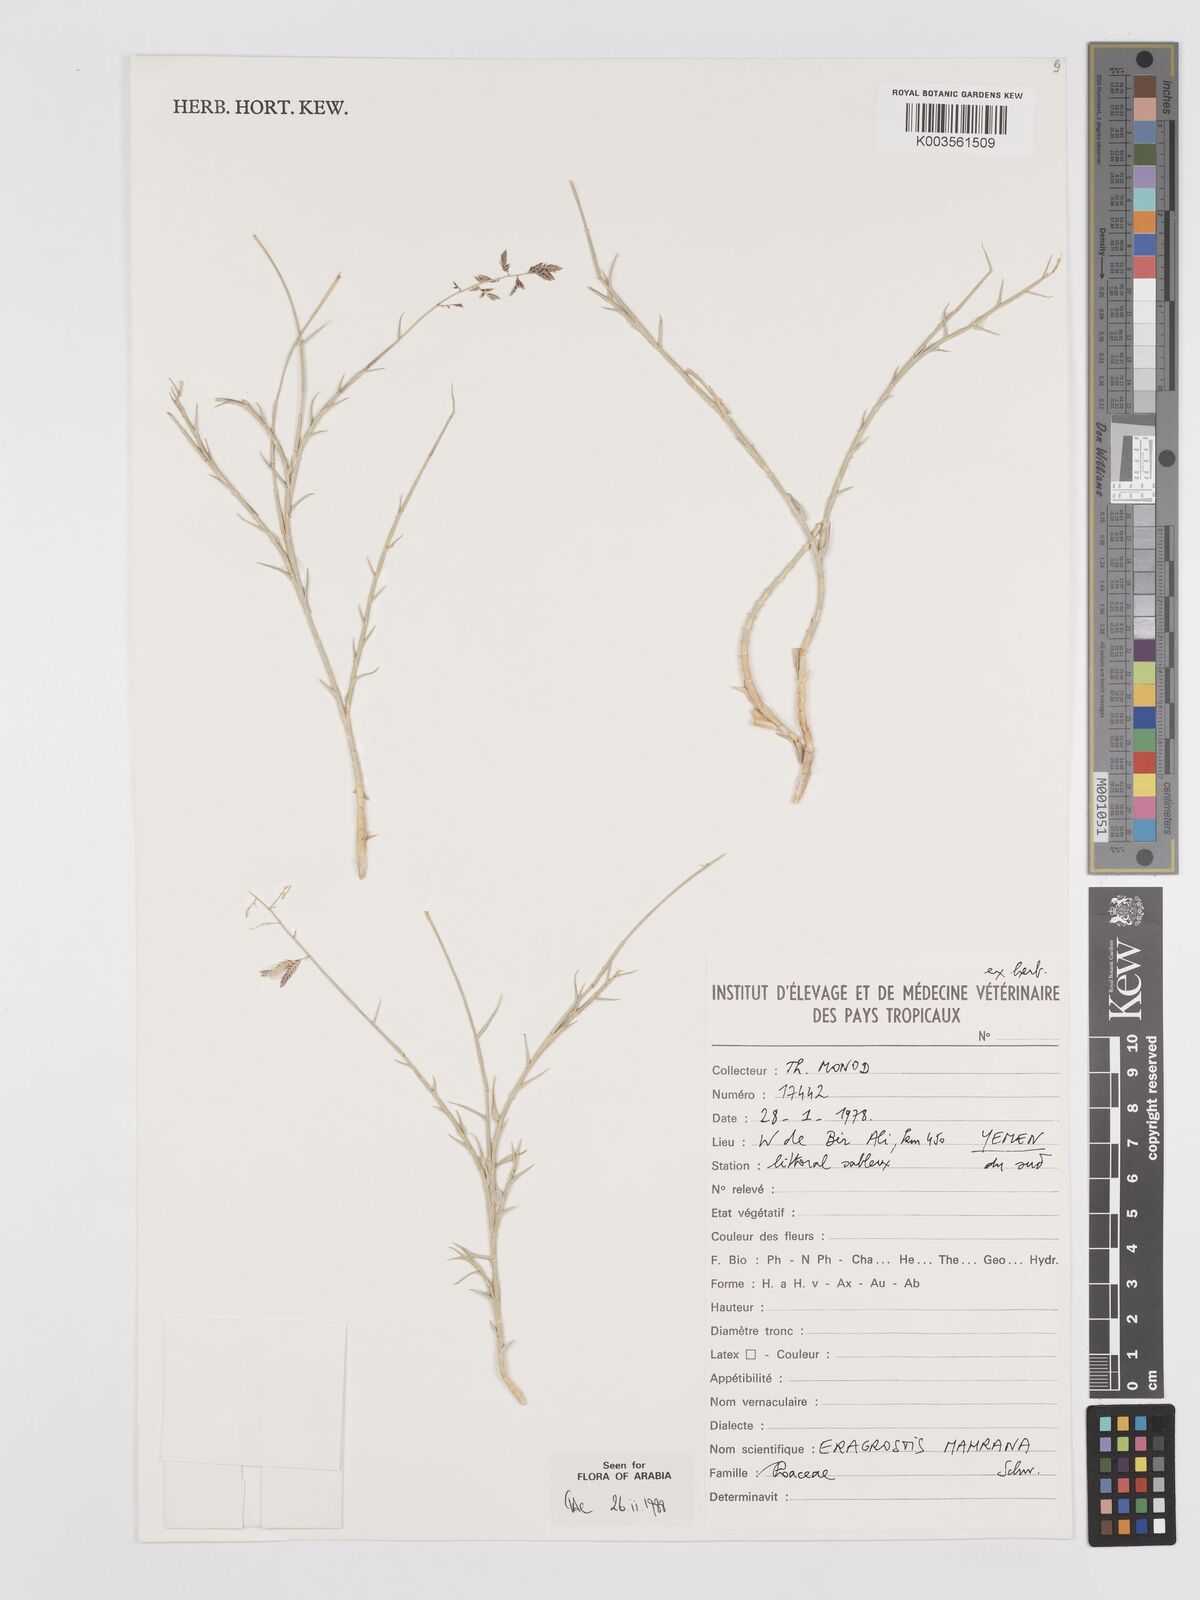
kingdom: Plantae
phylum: Tracheophyta
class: Liliopsida
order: Poales
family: Poaceae
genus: Eragrostis
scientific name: Eragrostis mahrana
